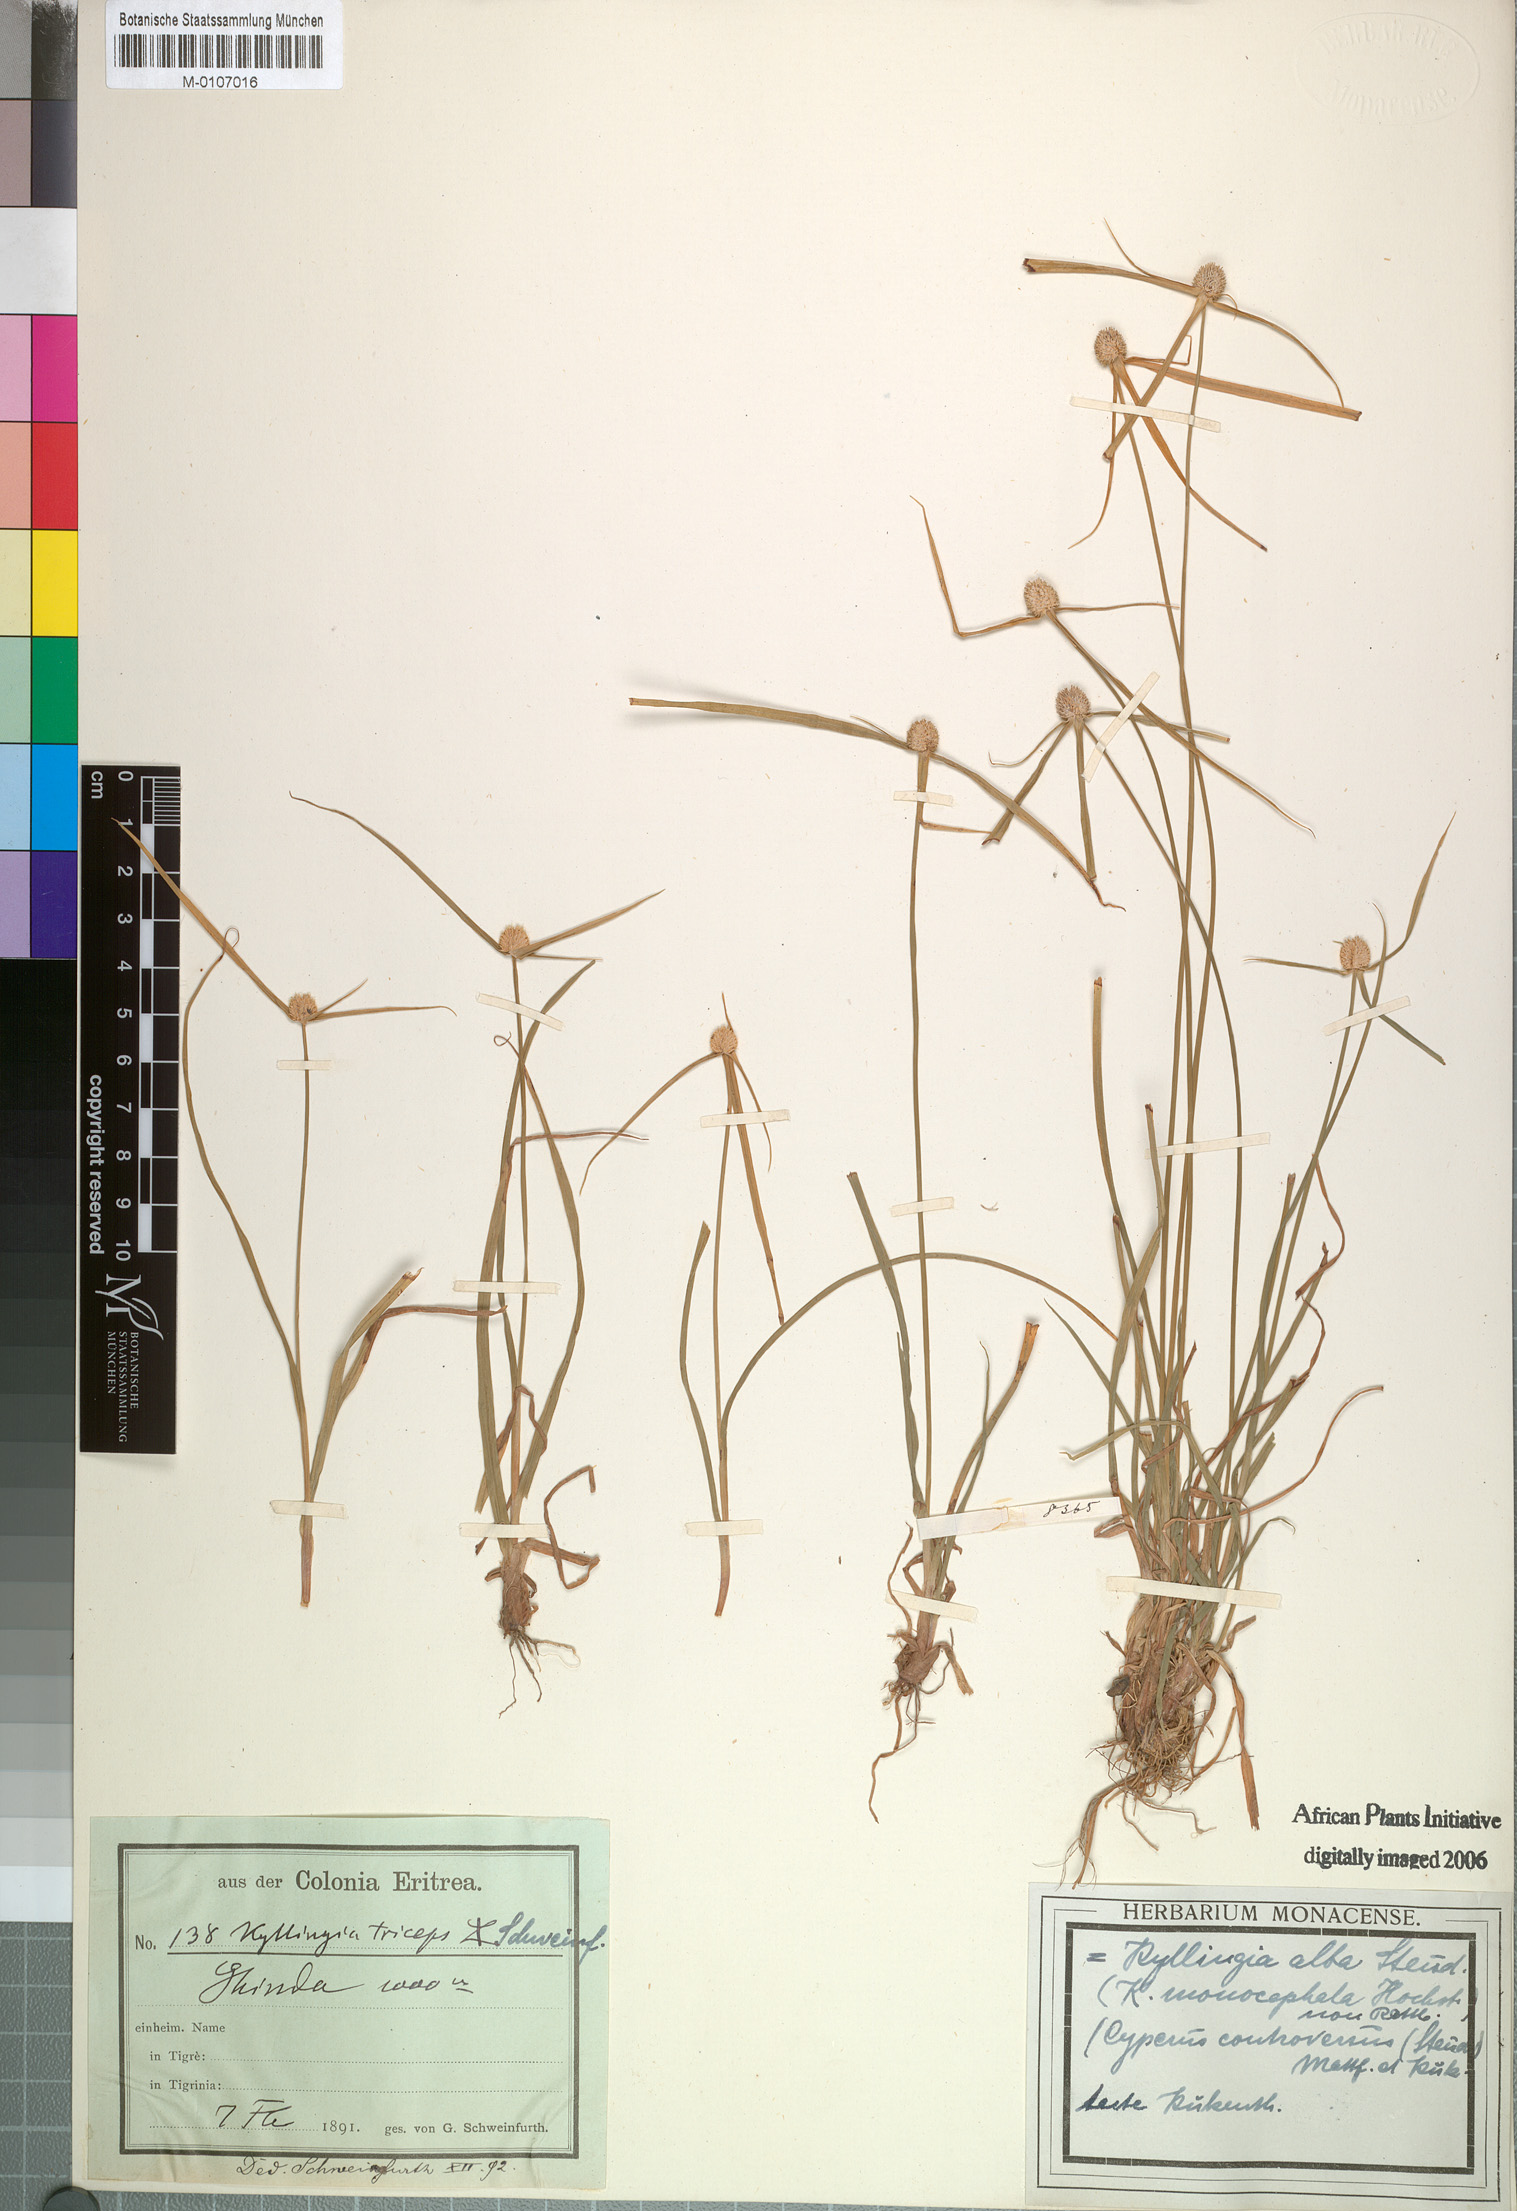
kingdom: Plantae
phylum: Tracheophyta
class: Liliopsida
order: Poales
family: Cyperaceae
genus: Cyperus
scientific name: Cyperus controversus
